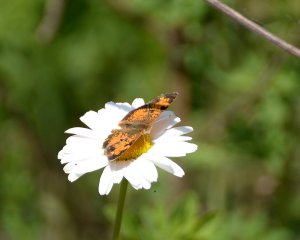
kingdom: Animalia
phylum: Arthropoda
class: Insecta
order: Lepidoptera
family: Nymphalidae
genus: Phyciodes
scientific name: Phyciodes tharos
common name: Northern Crescent
